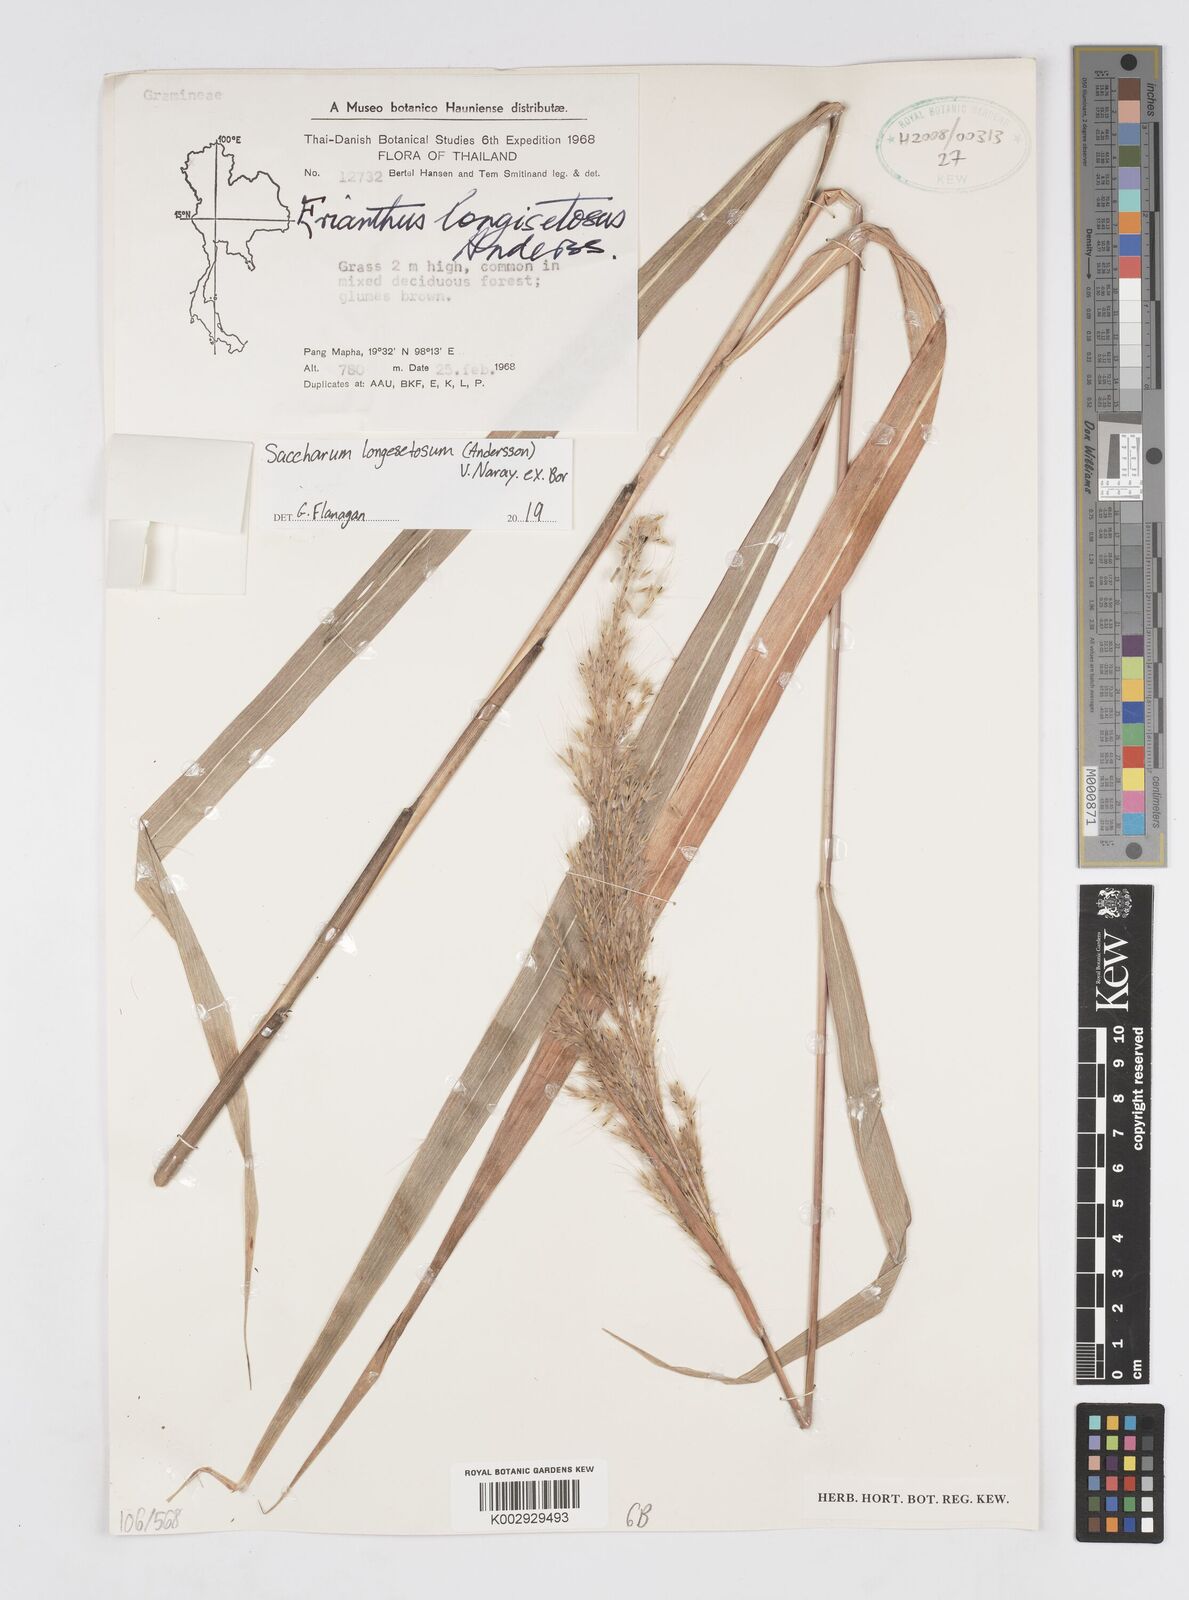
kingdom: Plantae
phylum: Tracheophyta
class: Liliopsida
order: Poales
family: Poaceae
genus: Saccharum
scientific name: Saccharum longesetosum
